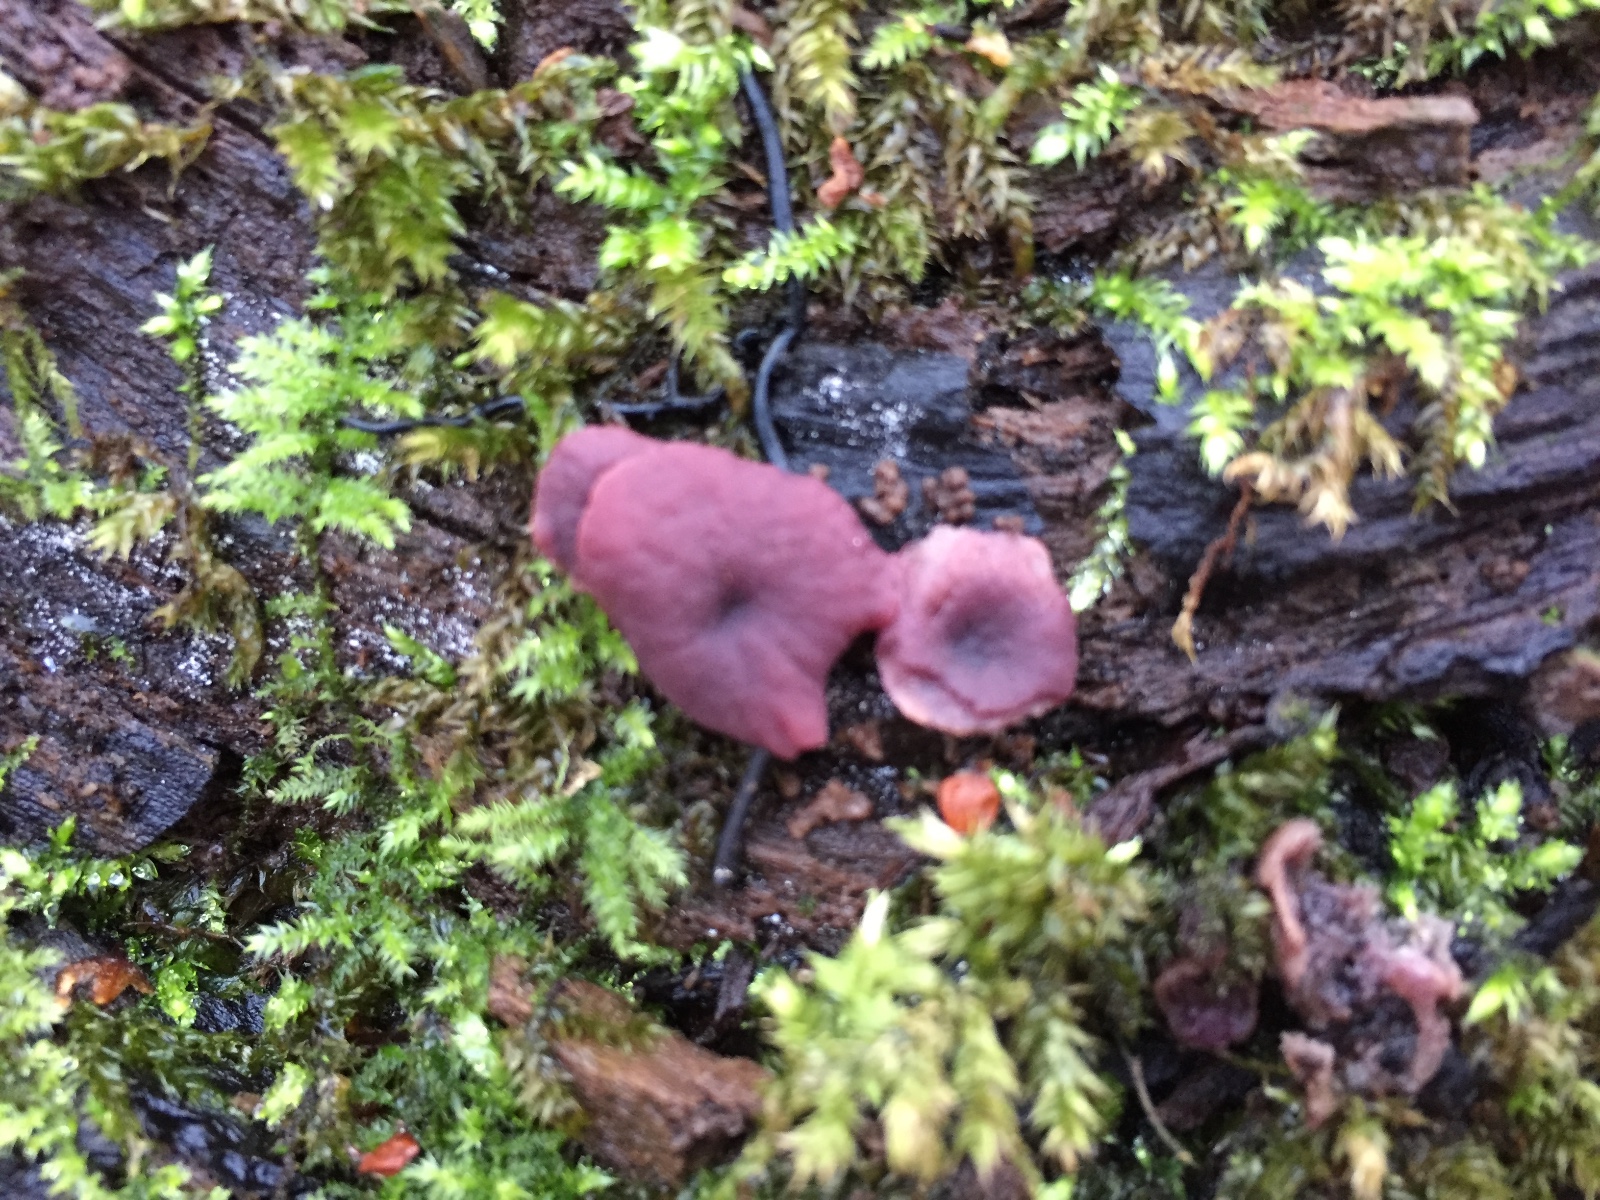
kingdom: Fungi
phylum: Ascomycota
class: Leotiomycetes
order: Helotiales
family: Gelatinodiscaceae
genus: Ascocoryne
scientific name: Ascocoryne cylichnium
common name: stor sejskive
